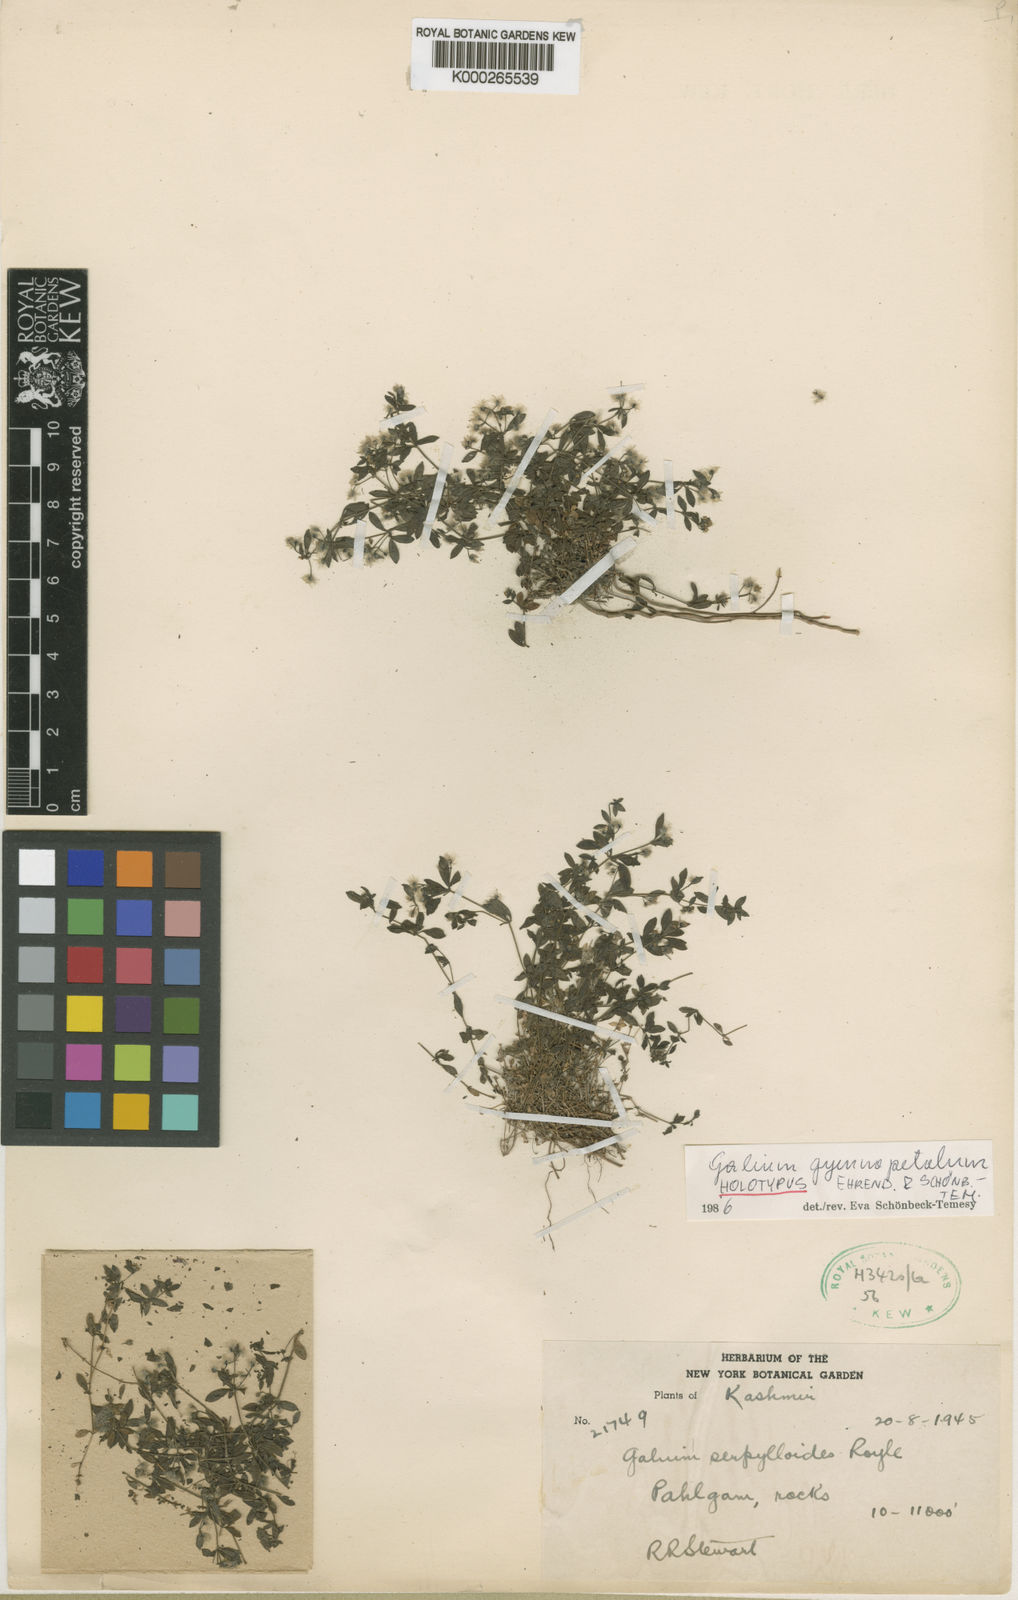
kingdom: Plantae
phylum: Tracheophyta
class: Magnoliopsida
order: Gentianales
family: Rubiaceae
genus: Galium
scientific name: Galium
